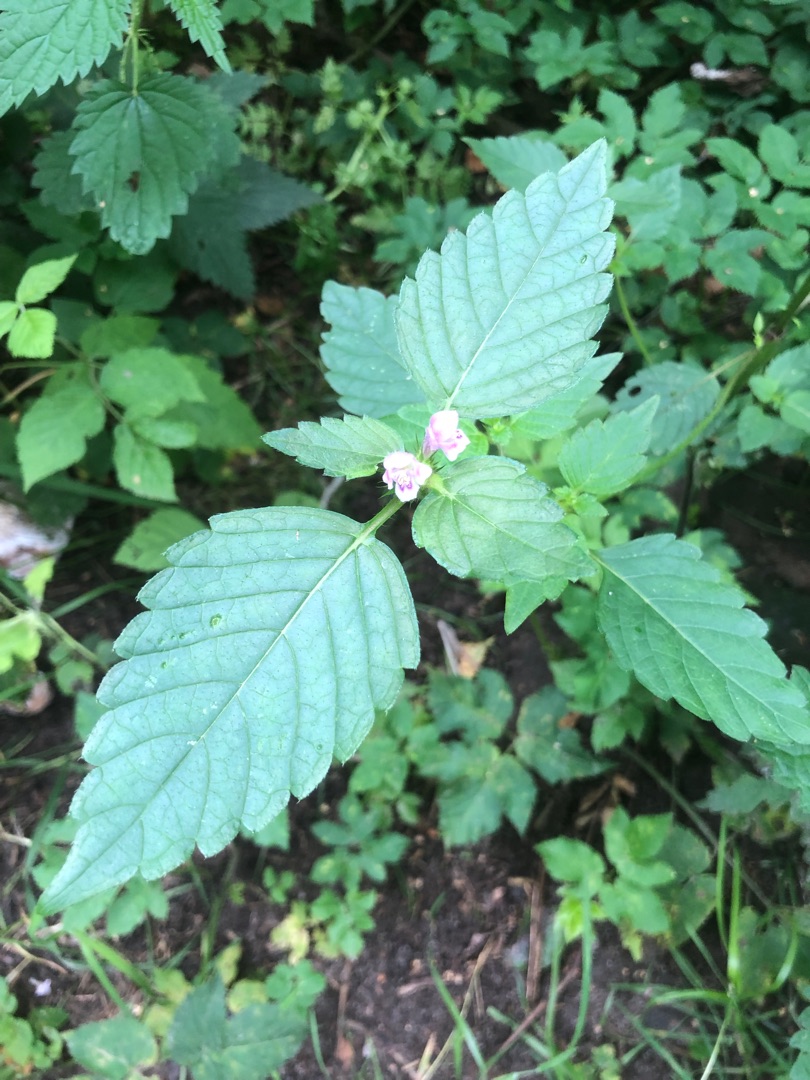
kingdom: Plantae
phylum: Tracheophyta
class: Magnoliopsida
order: Lamiales
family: Lamiaceae
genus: Galeopsis
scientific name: Galeopsis tetrahit
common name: Almindelig hanekro
